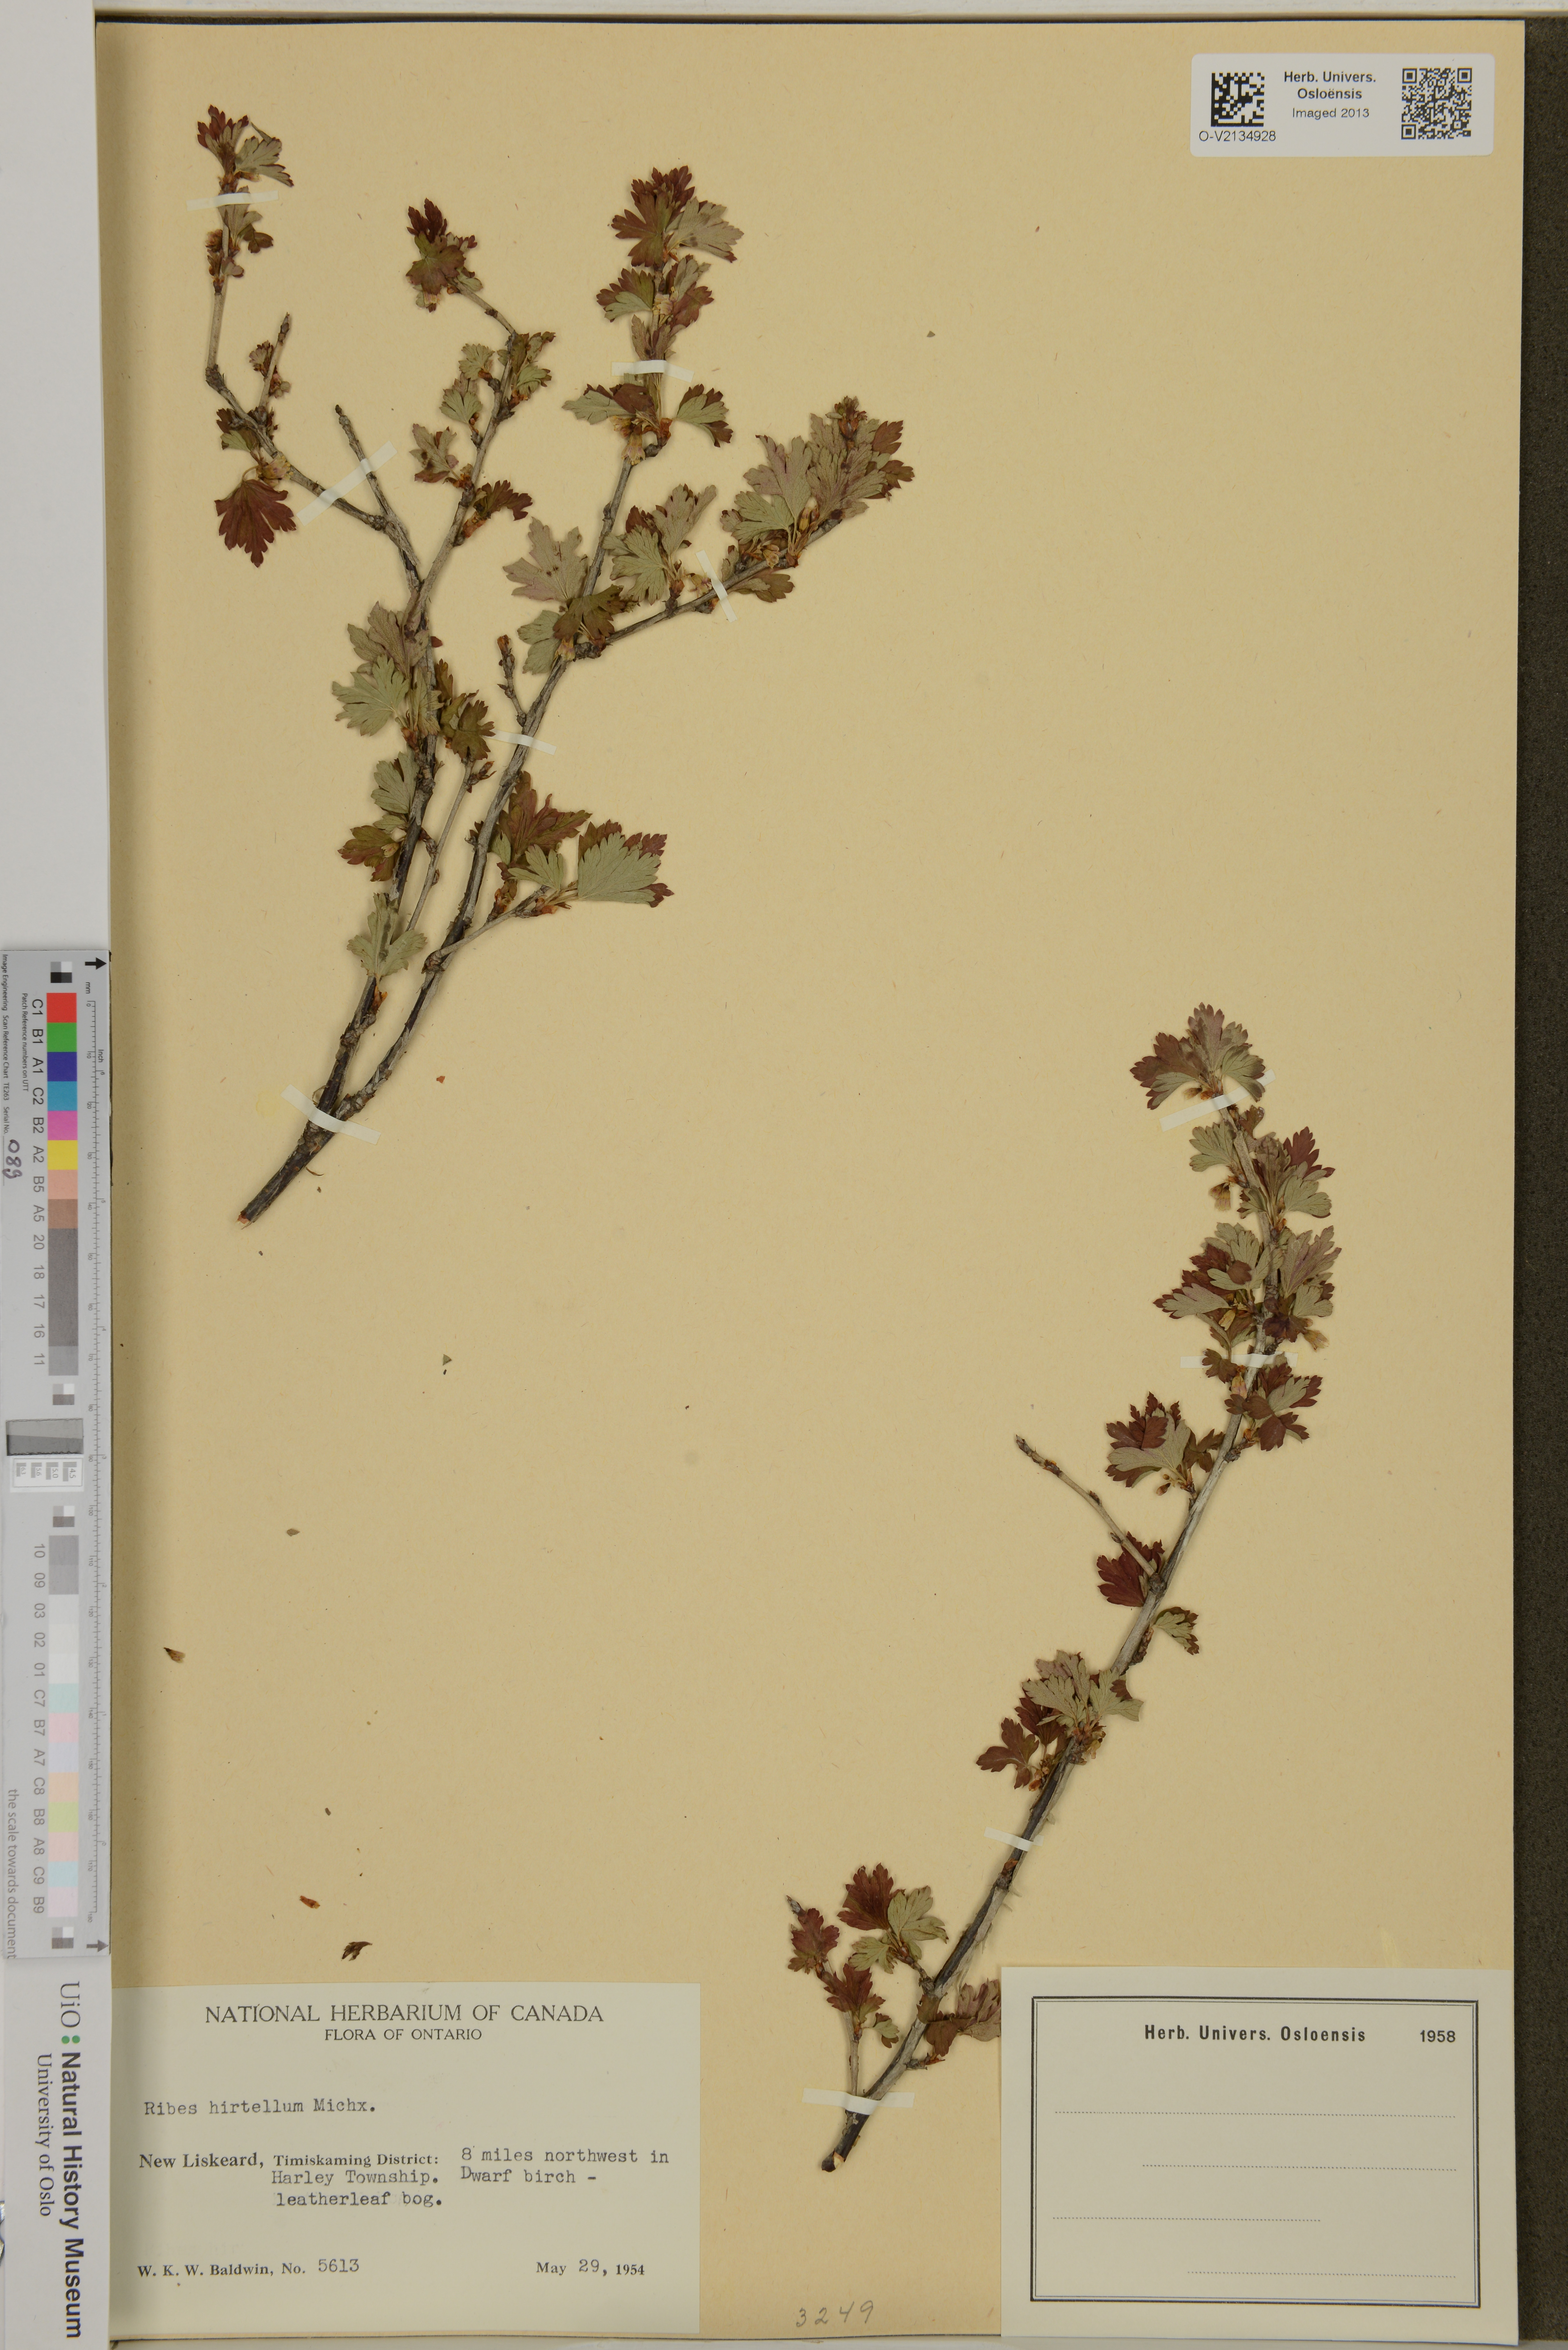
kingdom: Plantae
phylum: Tracheophyta
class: Magnoliopsida
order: Saxifragales
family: Grossulariaceae
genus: Ribes
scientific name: Ribes hirtellum
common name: Hairy gooseberry
